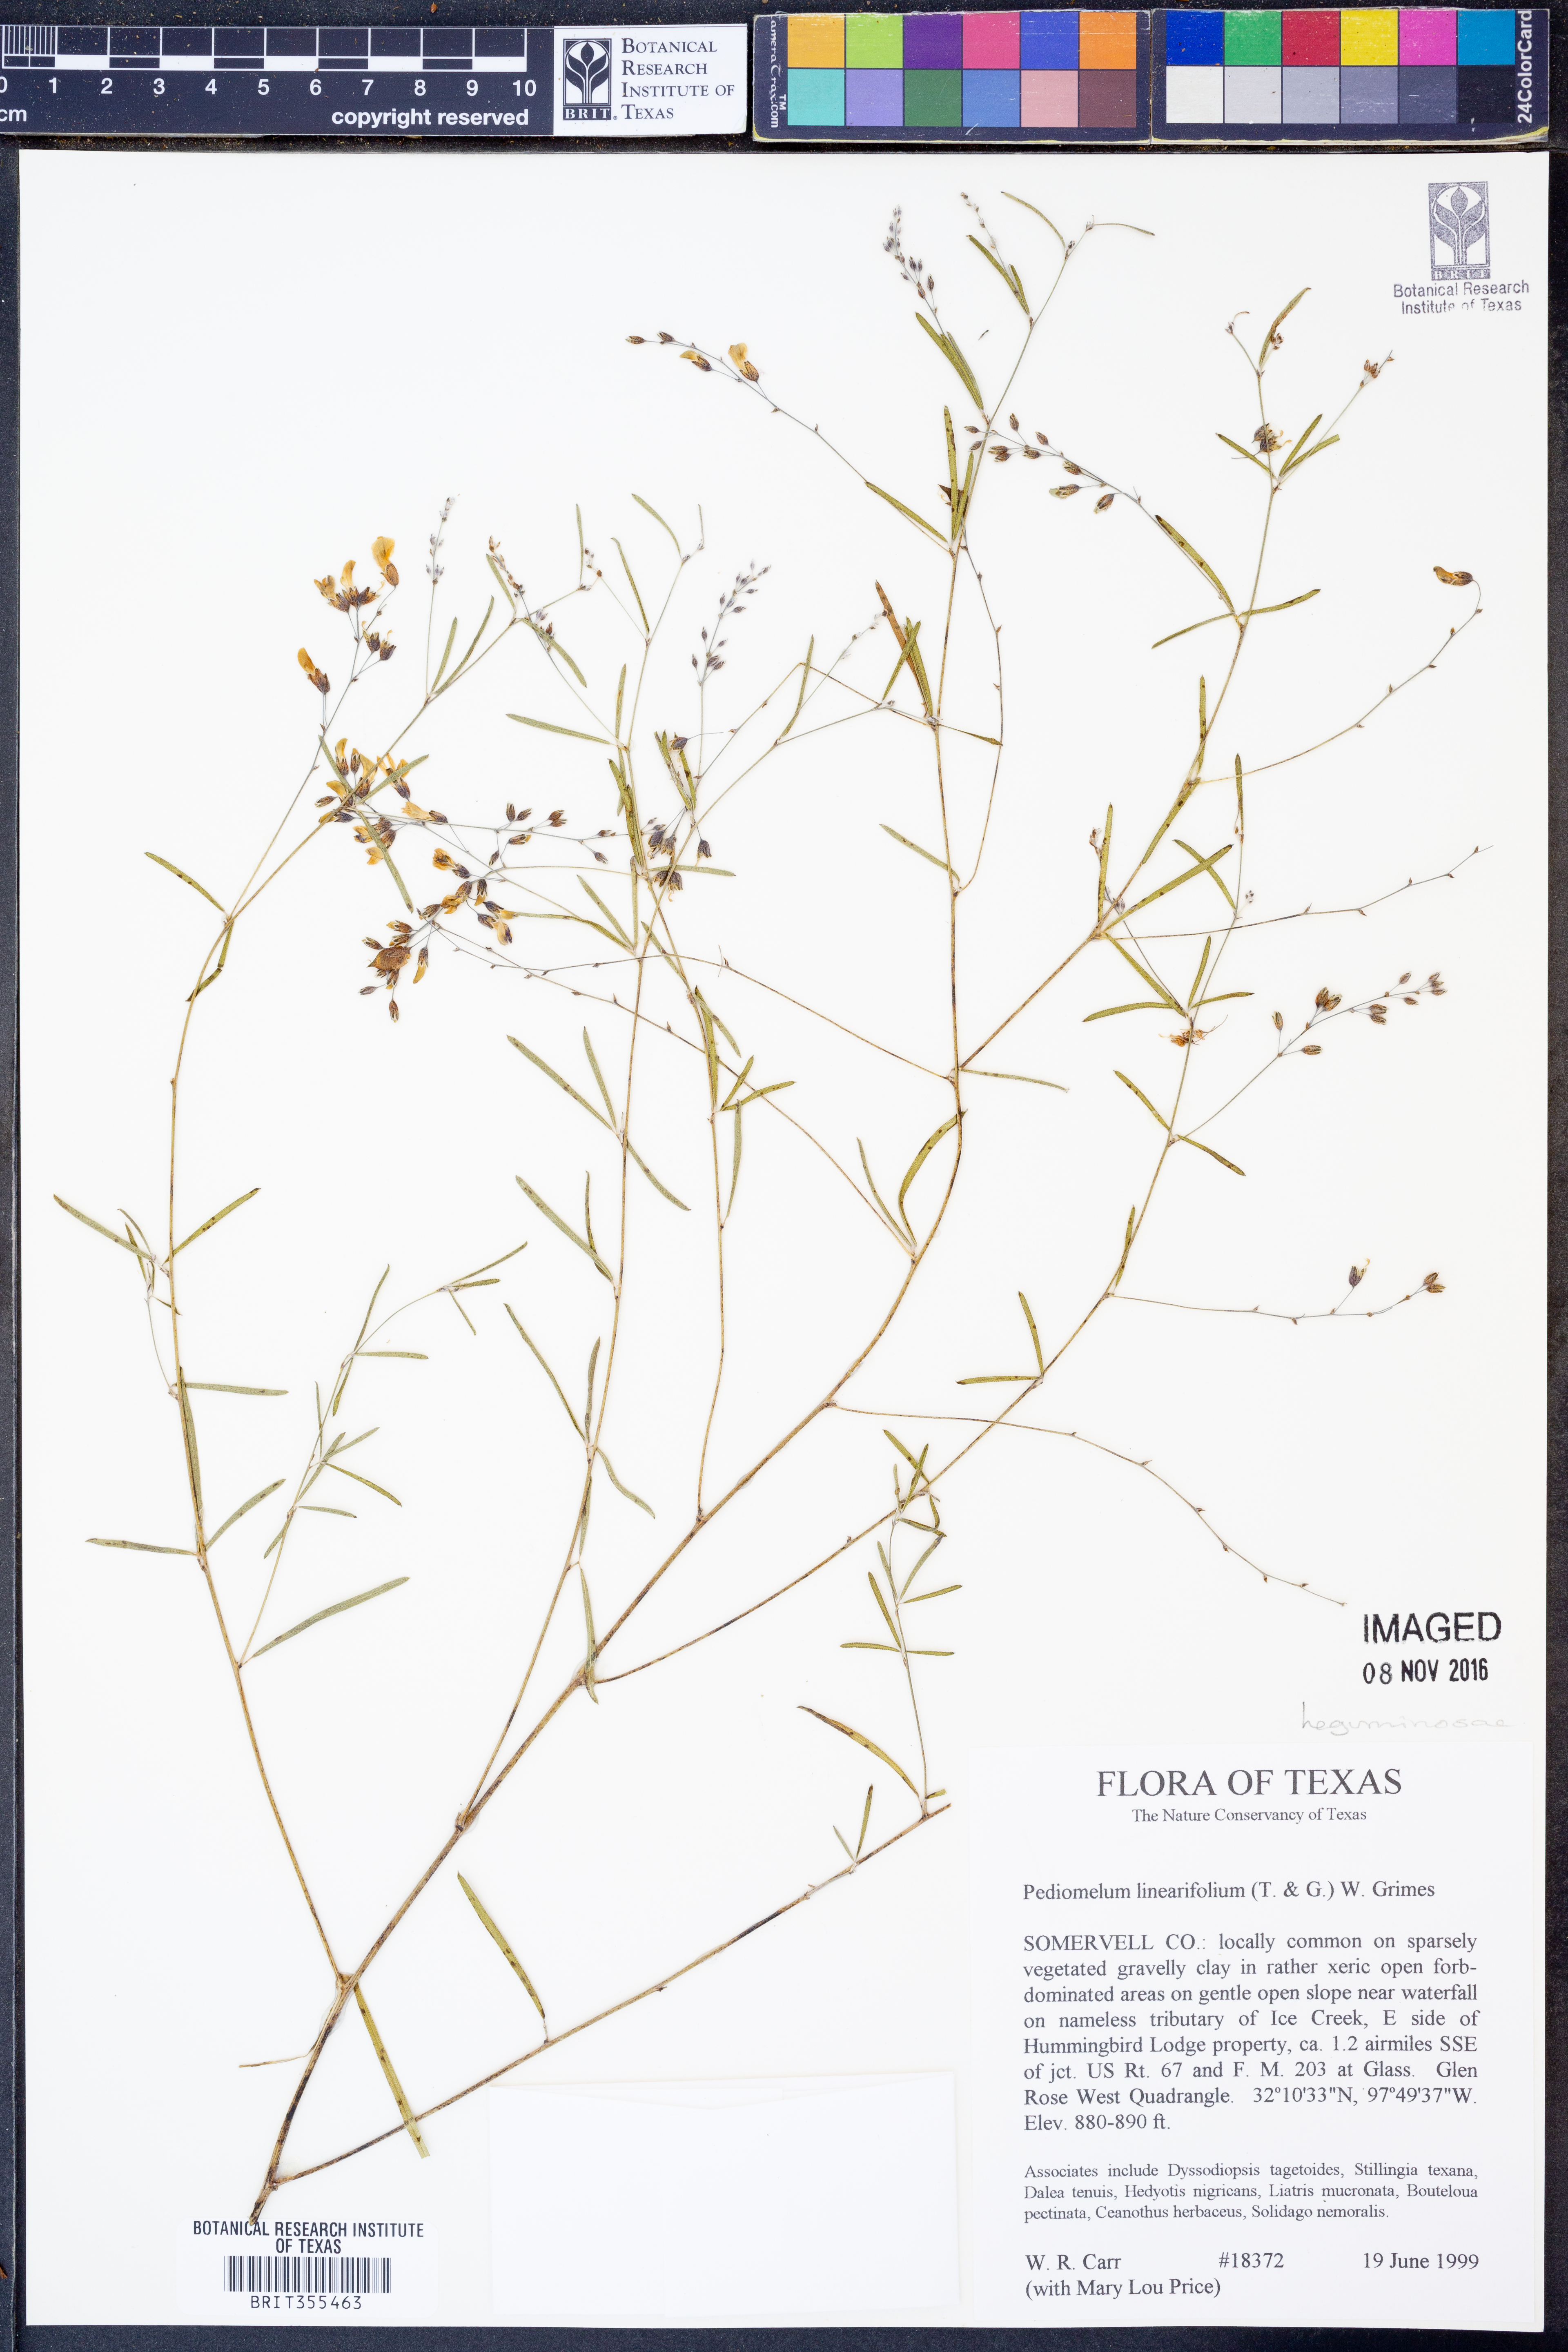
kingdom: Plantae
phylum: Tracheophyta
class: Magnoliopsida
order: Fabales
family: Fabaceae
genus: Pediomelum
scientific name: Pediomelum linearifolium
